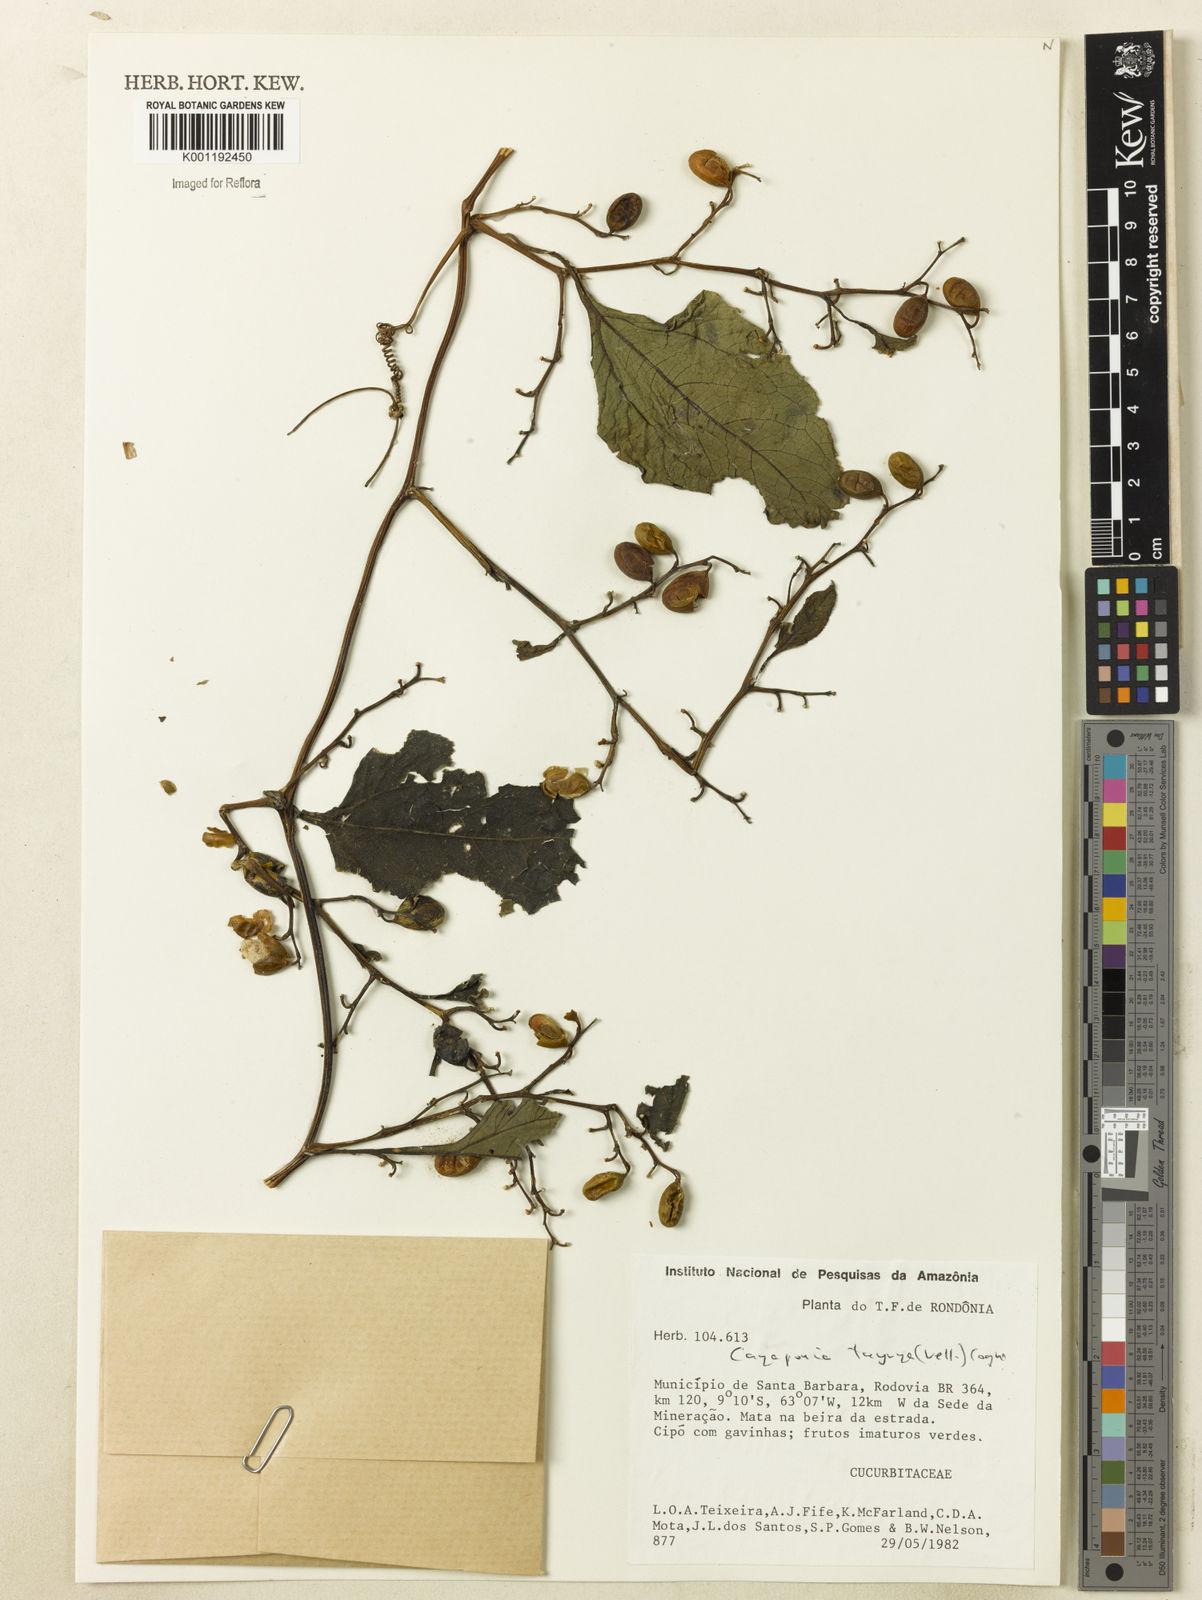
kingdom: Plantae
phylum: Tracheophyta
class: Magnoliopsida
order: Cucurbitales
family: Cucurbitaceae
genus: Cayaponia
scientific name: Cayaponia tayuya
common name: Tayuya
